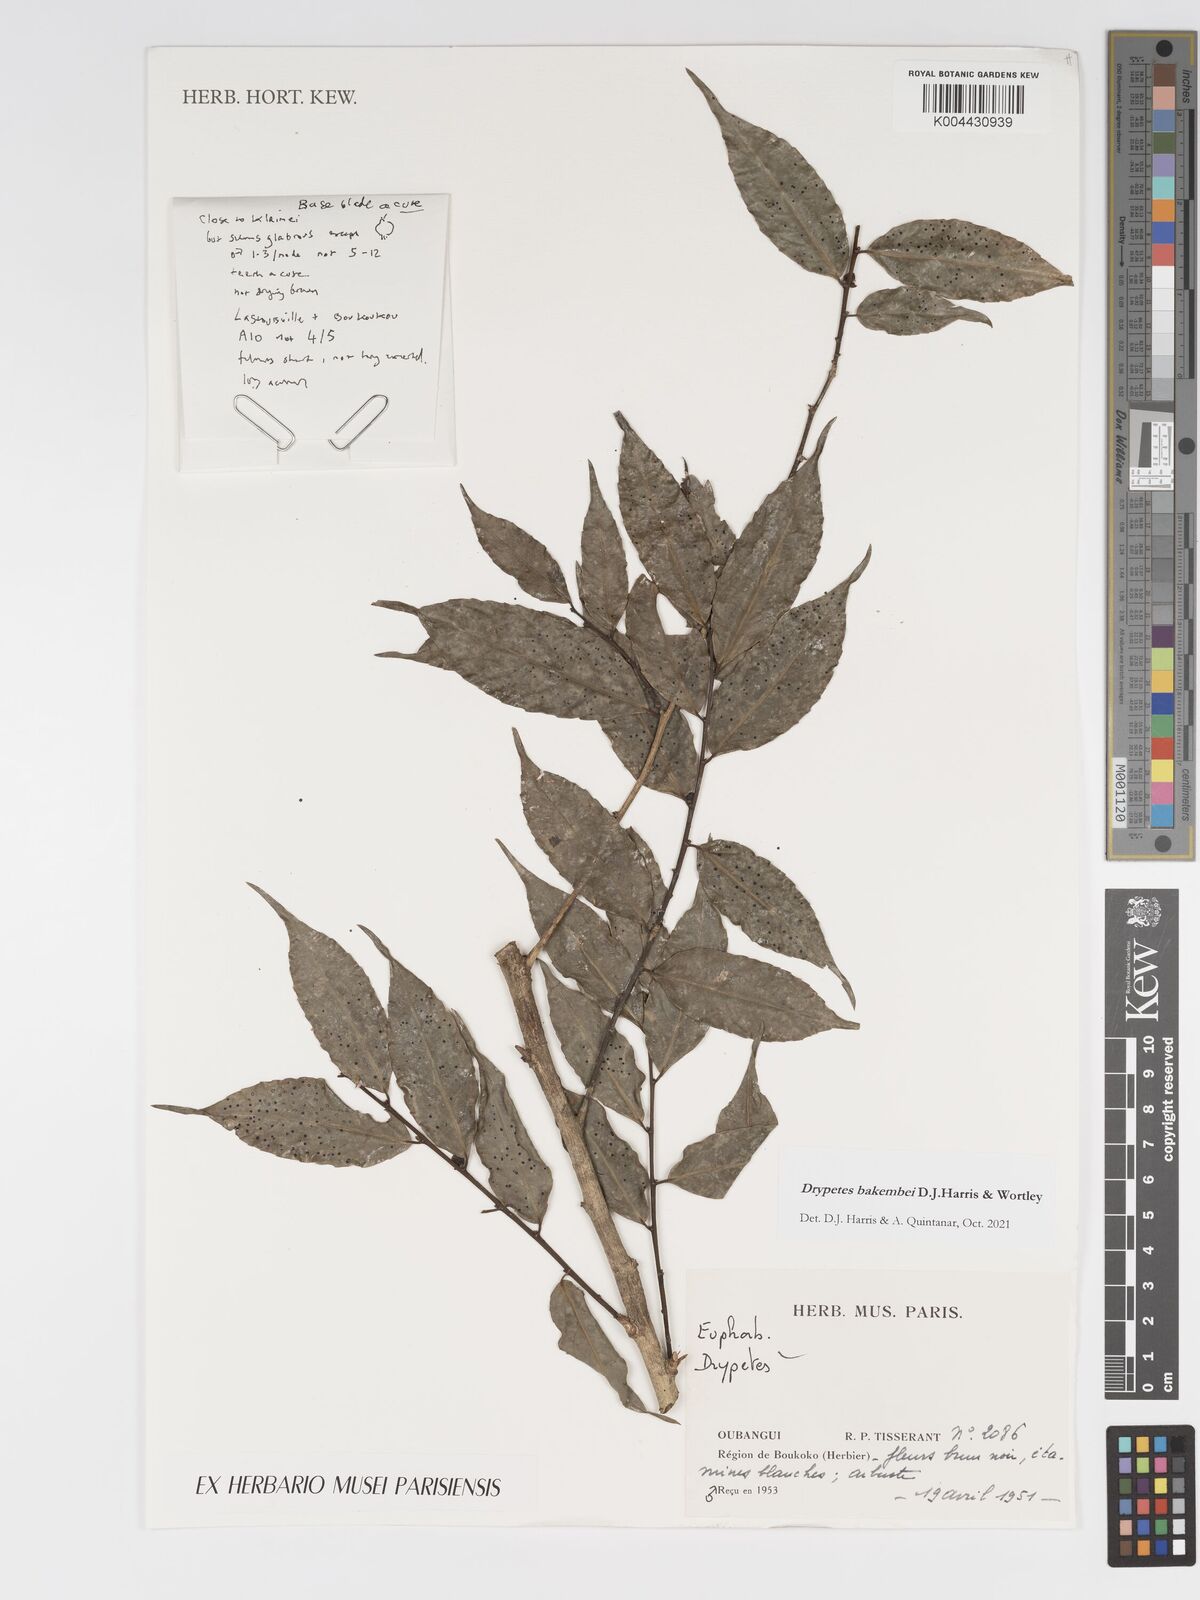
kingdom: Plantae
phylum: Tracheophyta
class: Magnoliopsida
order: Malpighiales
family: Putranjivaceae
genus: Drypetes
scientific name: Drypetes bakembei
